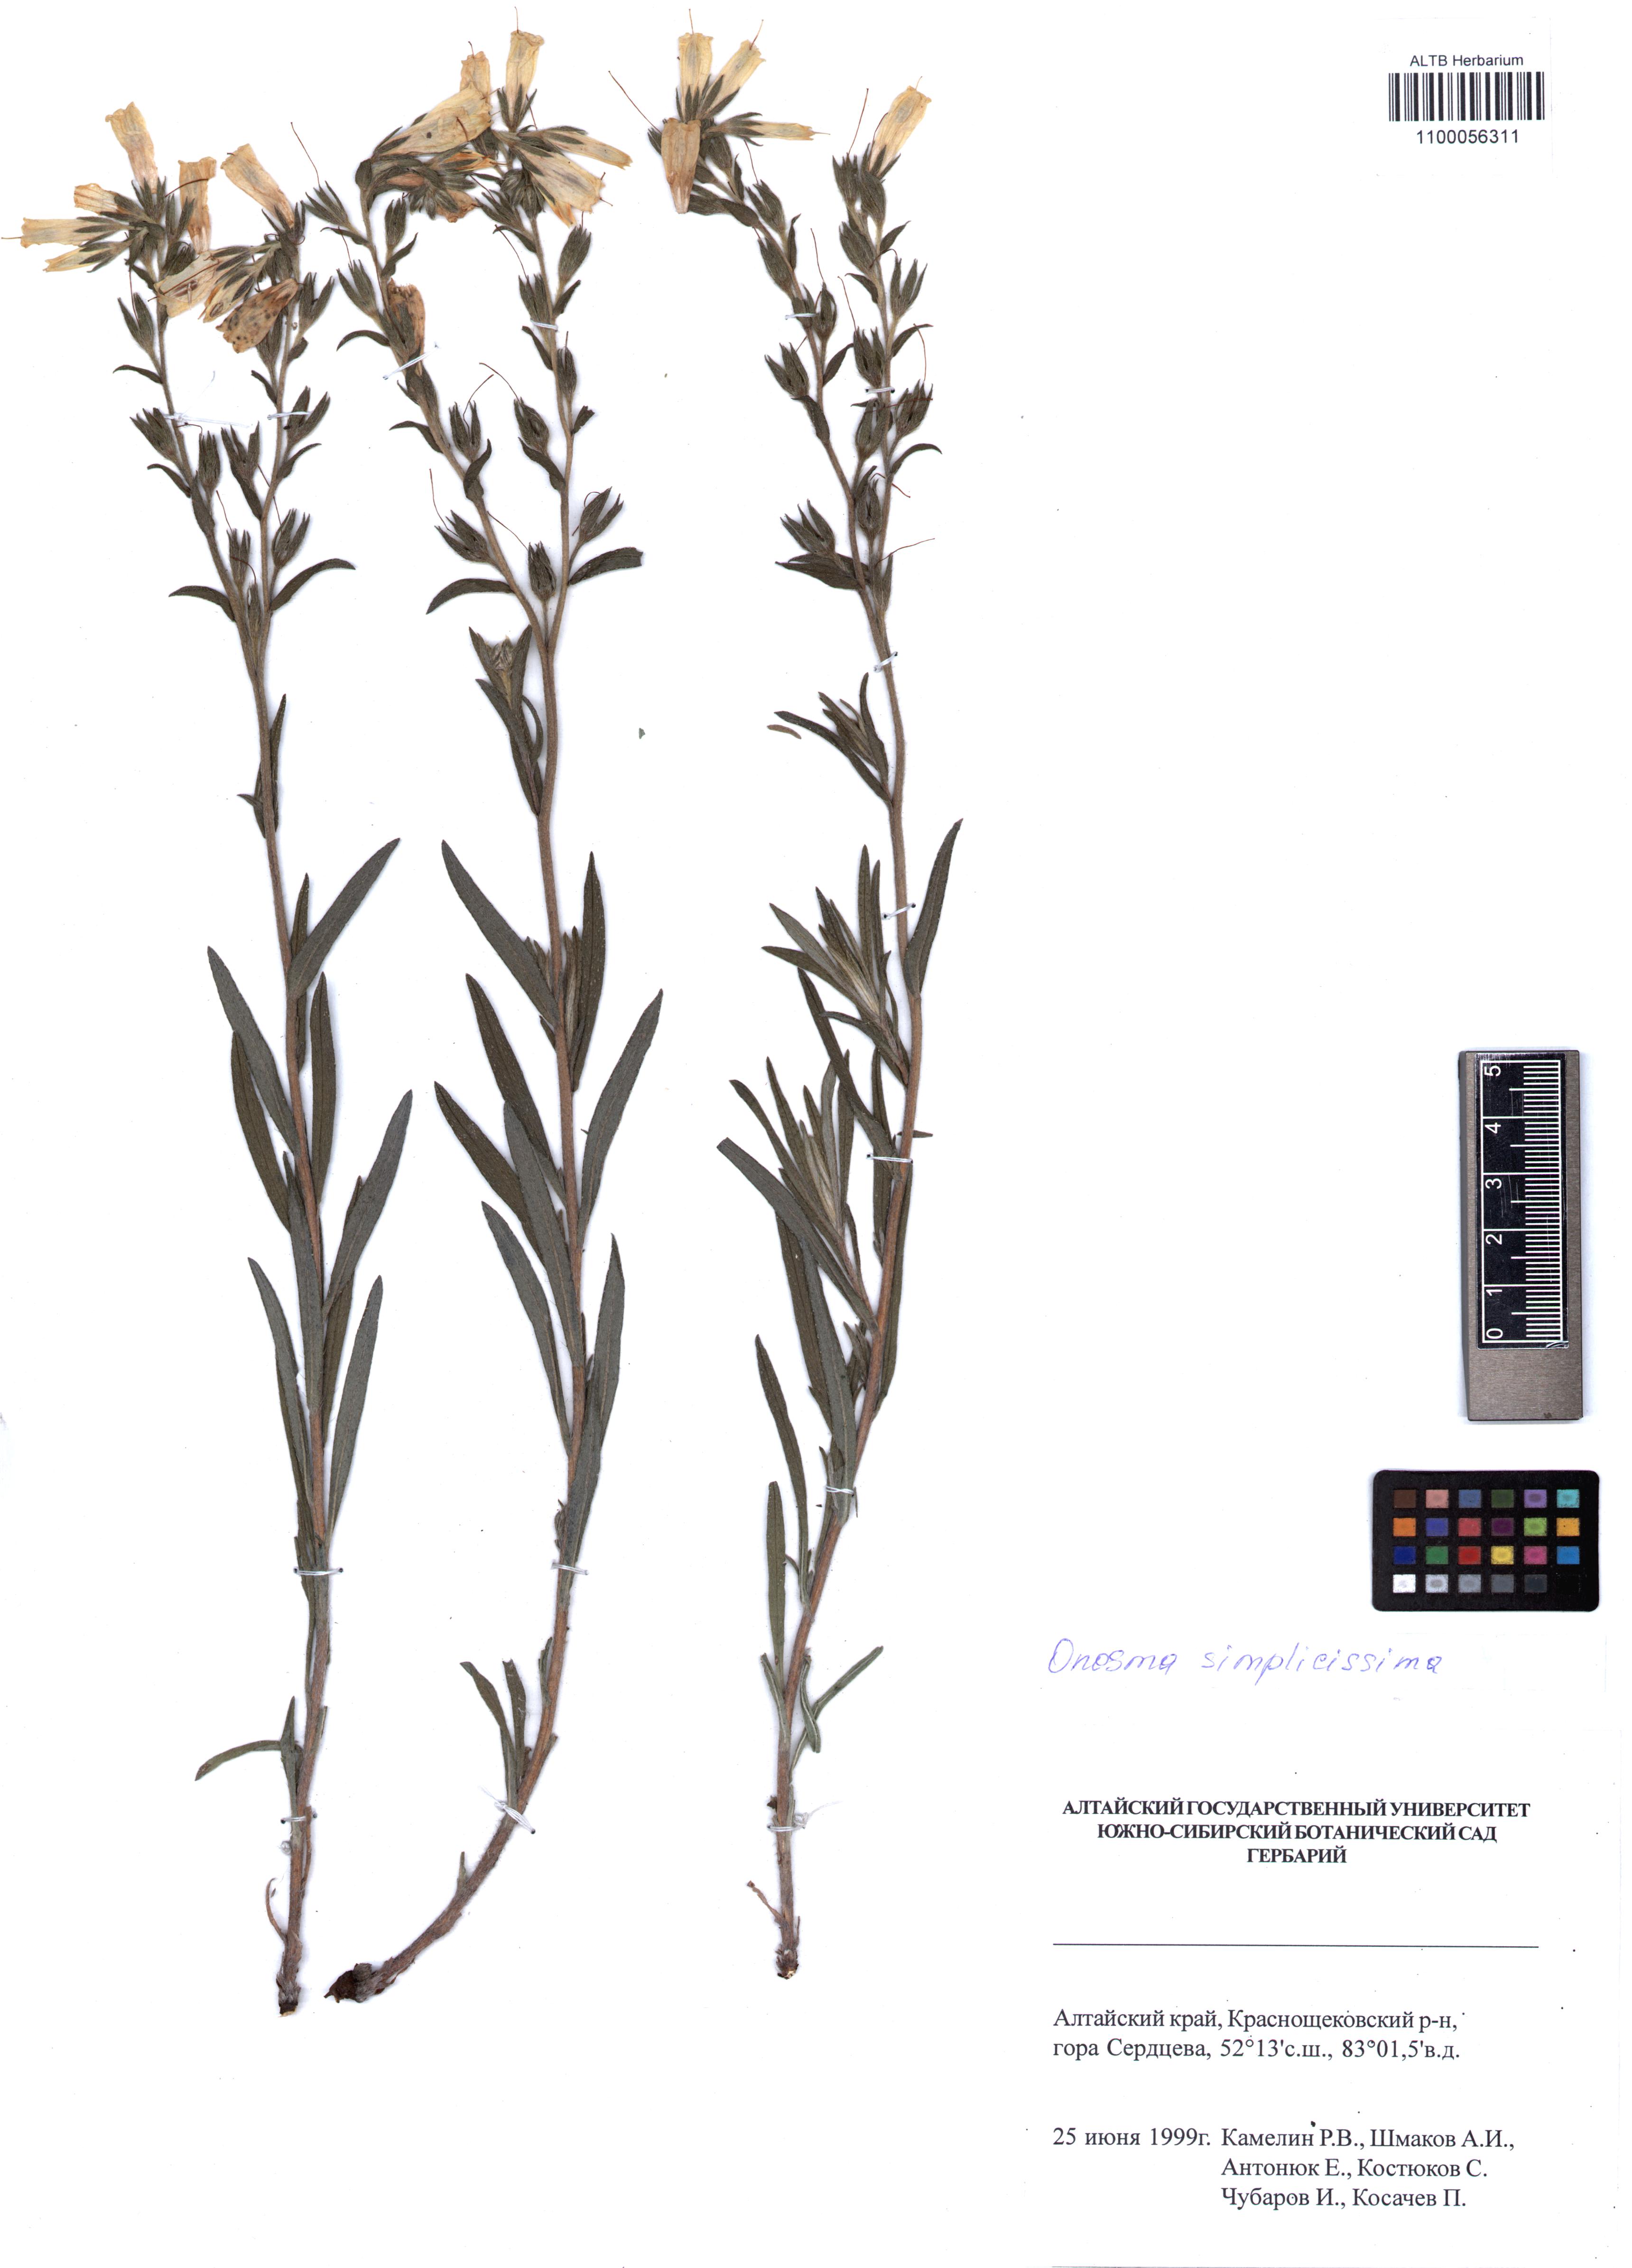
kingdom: Plantae
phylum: Tracheophyta
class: Magnoliopsida
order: Boraginales
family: Boraginaceae
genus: Onosma
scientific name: Onosma simplicissima
